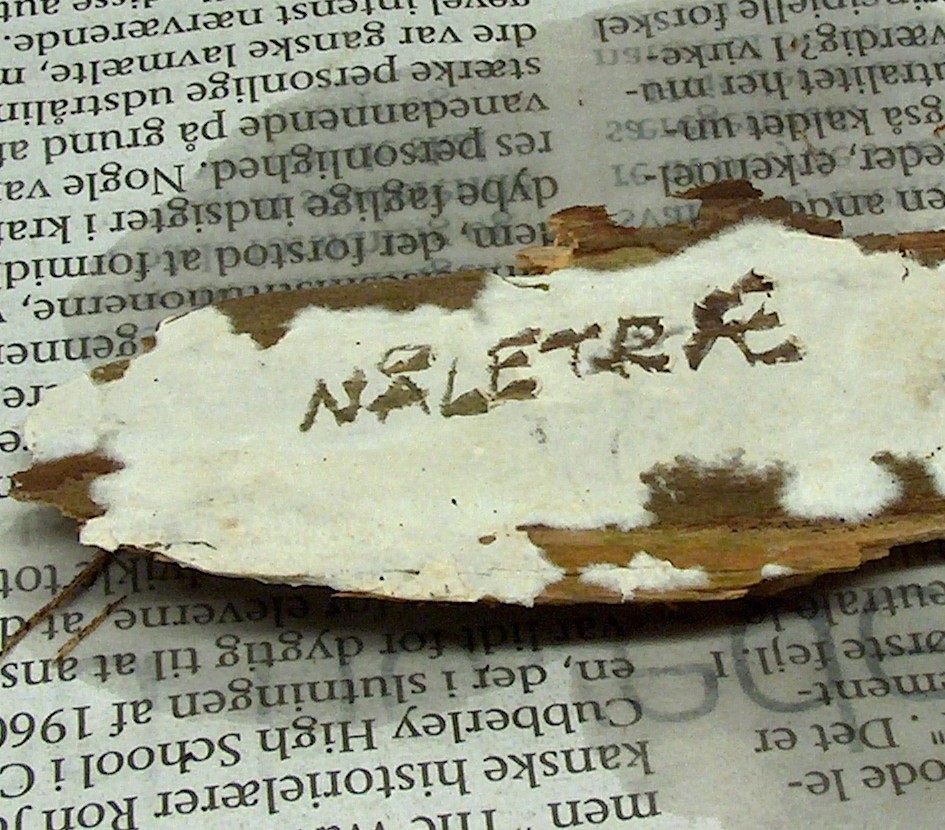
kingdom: Fungi
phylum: Basidiomycota
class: Agaricomycetes
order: Atheliales
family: Atheliaceae
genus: Leptosporomyces
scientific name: Leptosporomyces fuscostratus
